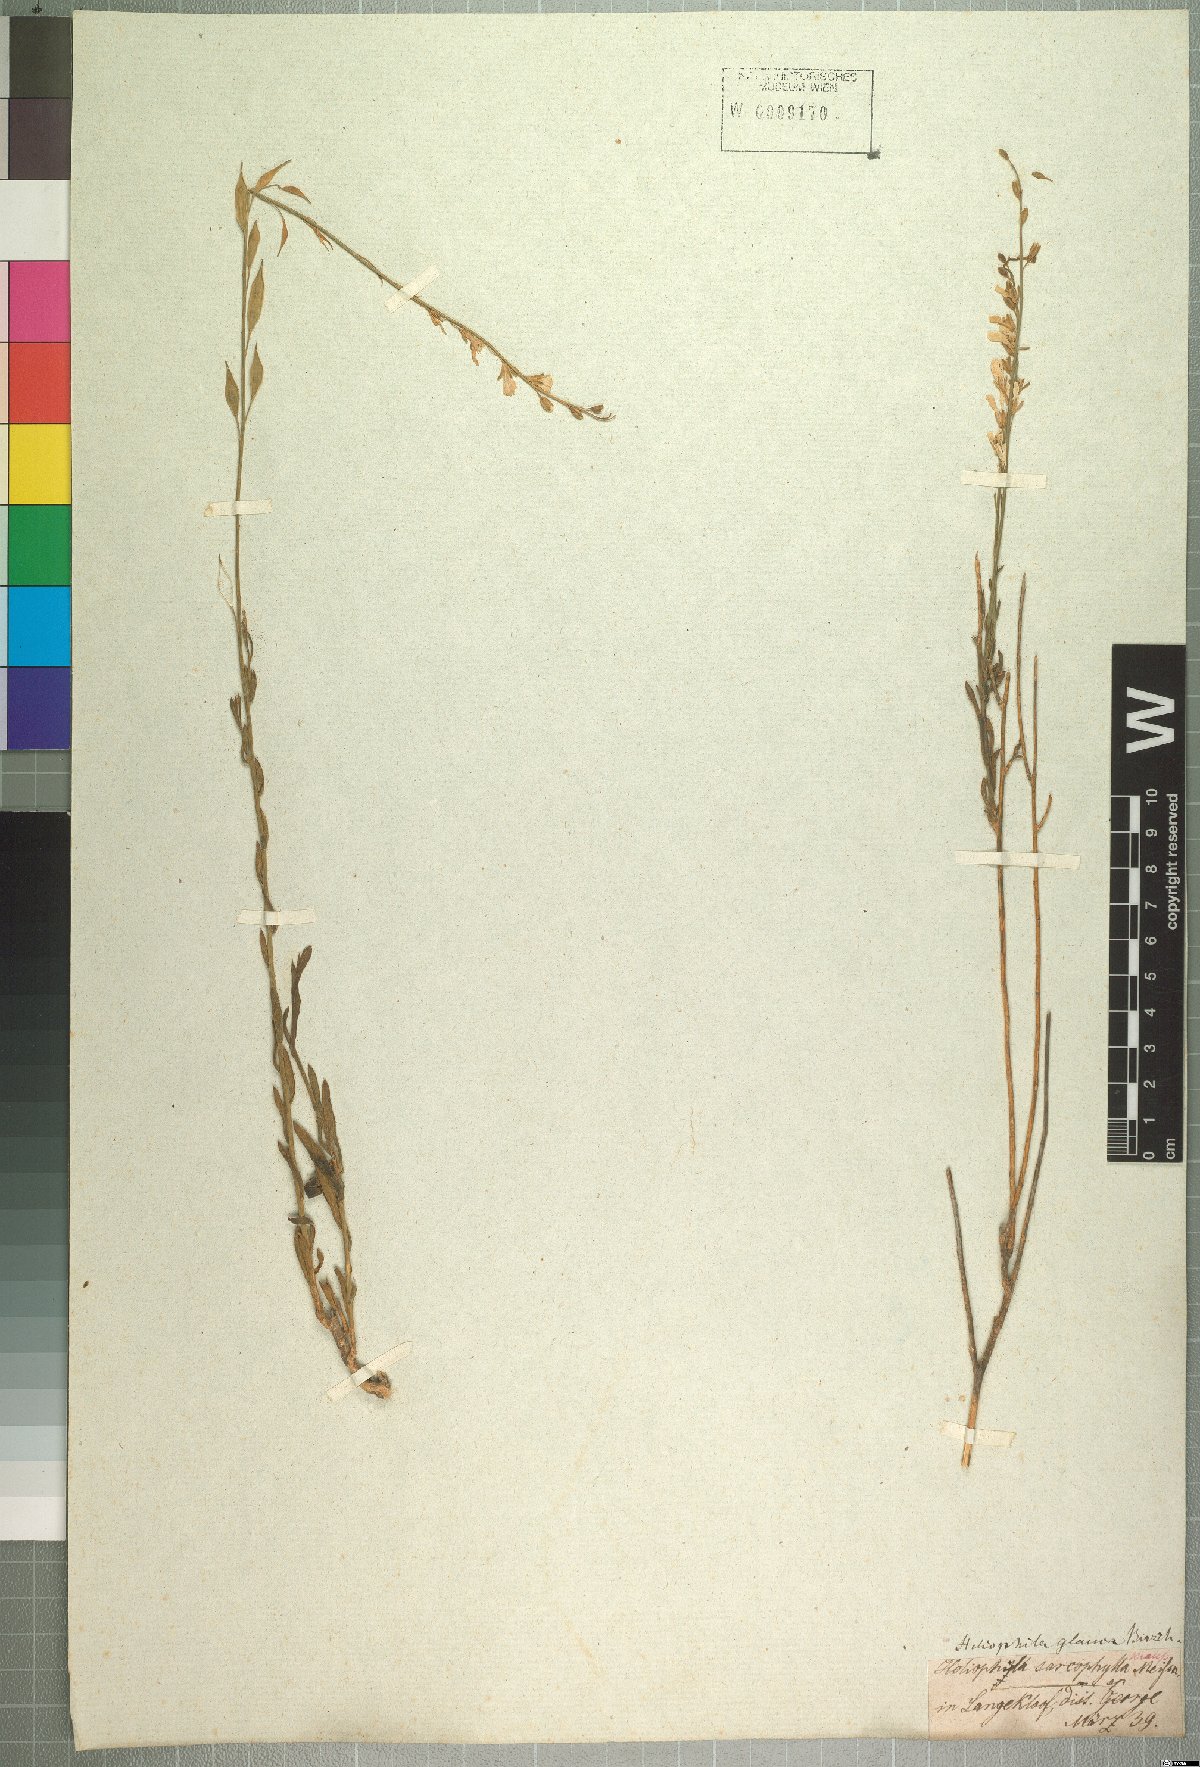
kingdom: Plantae
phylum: Tracheophyta
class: Magnoliopsida
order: Brassicales
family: Brassicaceae
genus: Heliophila
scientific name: Heliophila glauca
